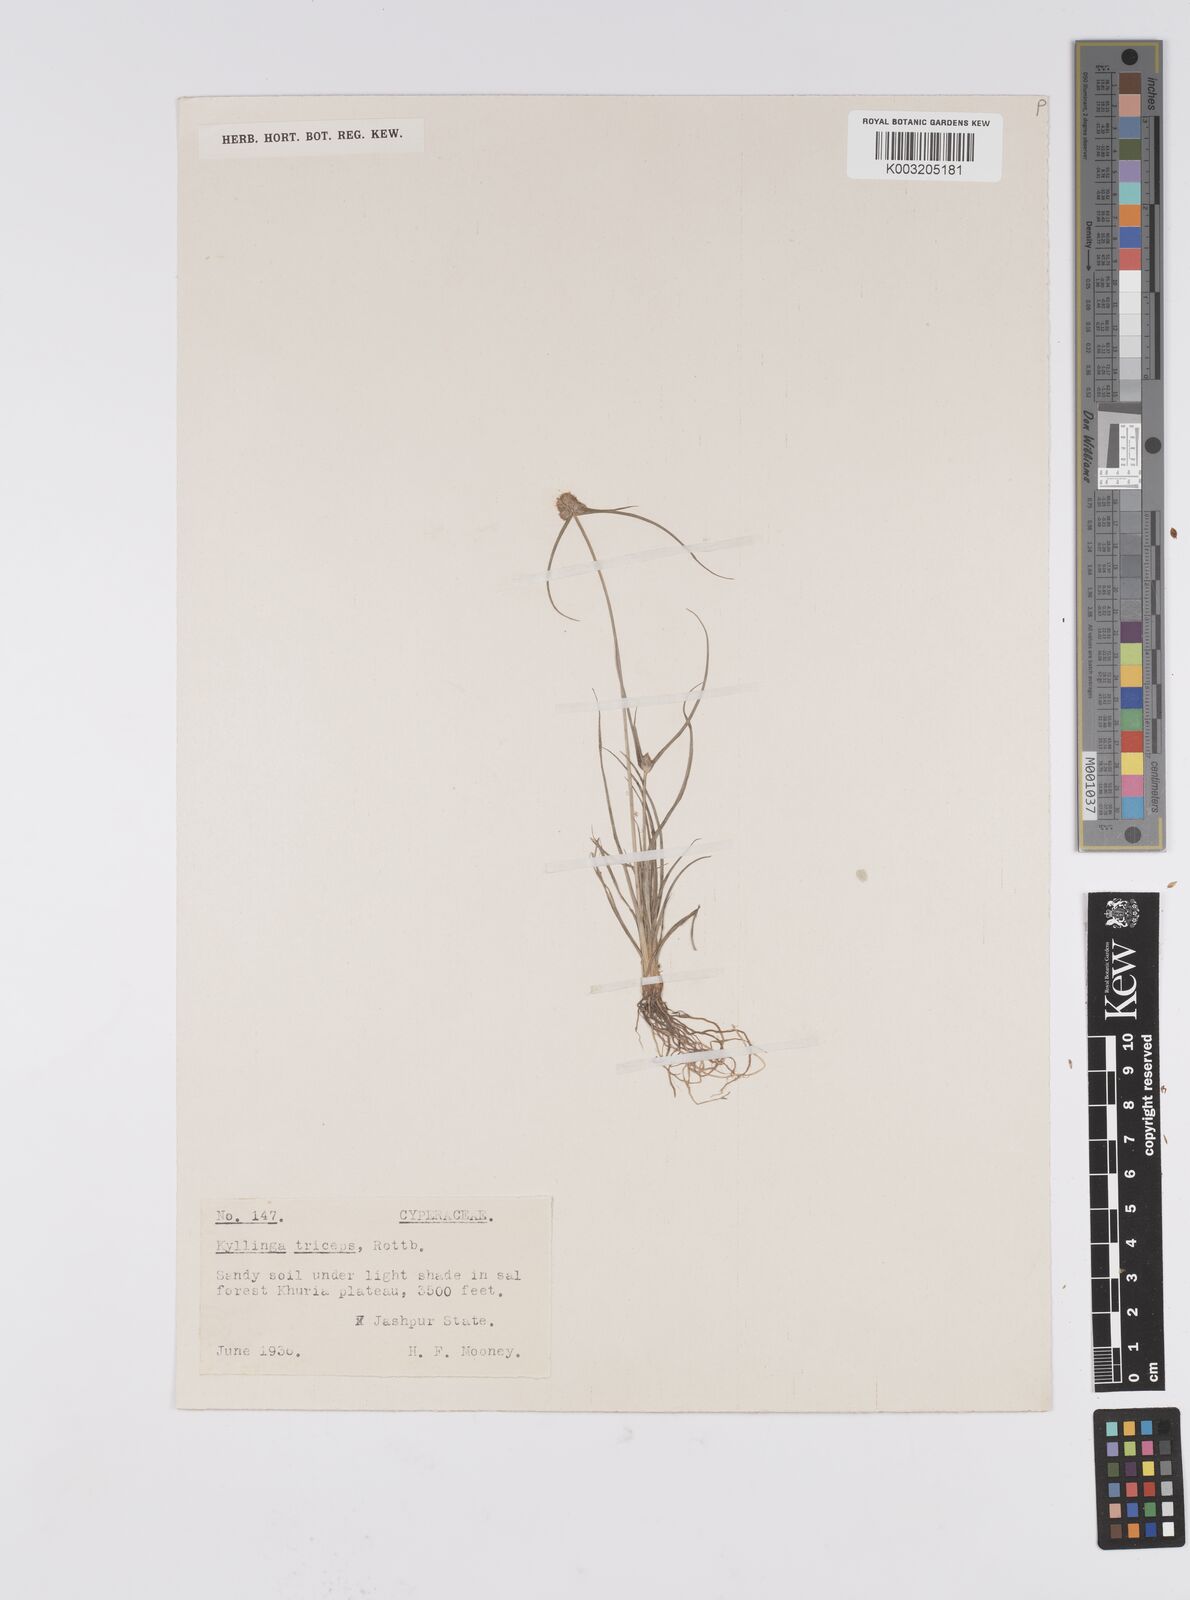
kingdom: Plantae
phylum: Tracheophyta
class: Liliopsida
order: Poales
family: Cyperaceae
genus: Cyperus
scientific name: Cyperus
